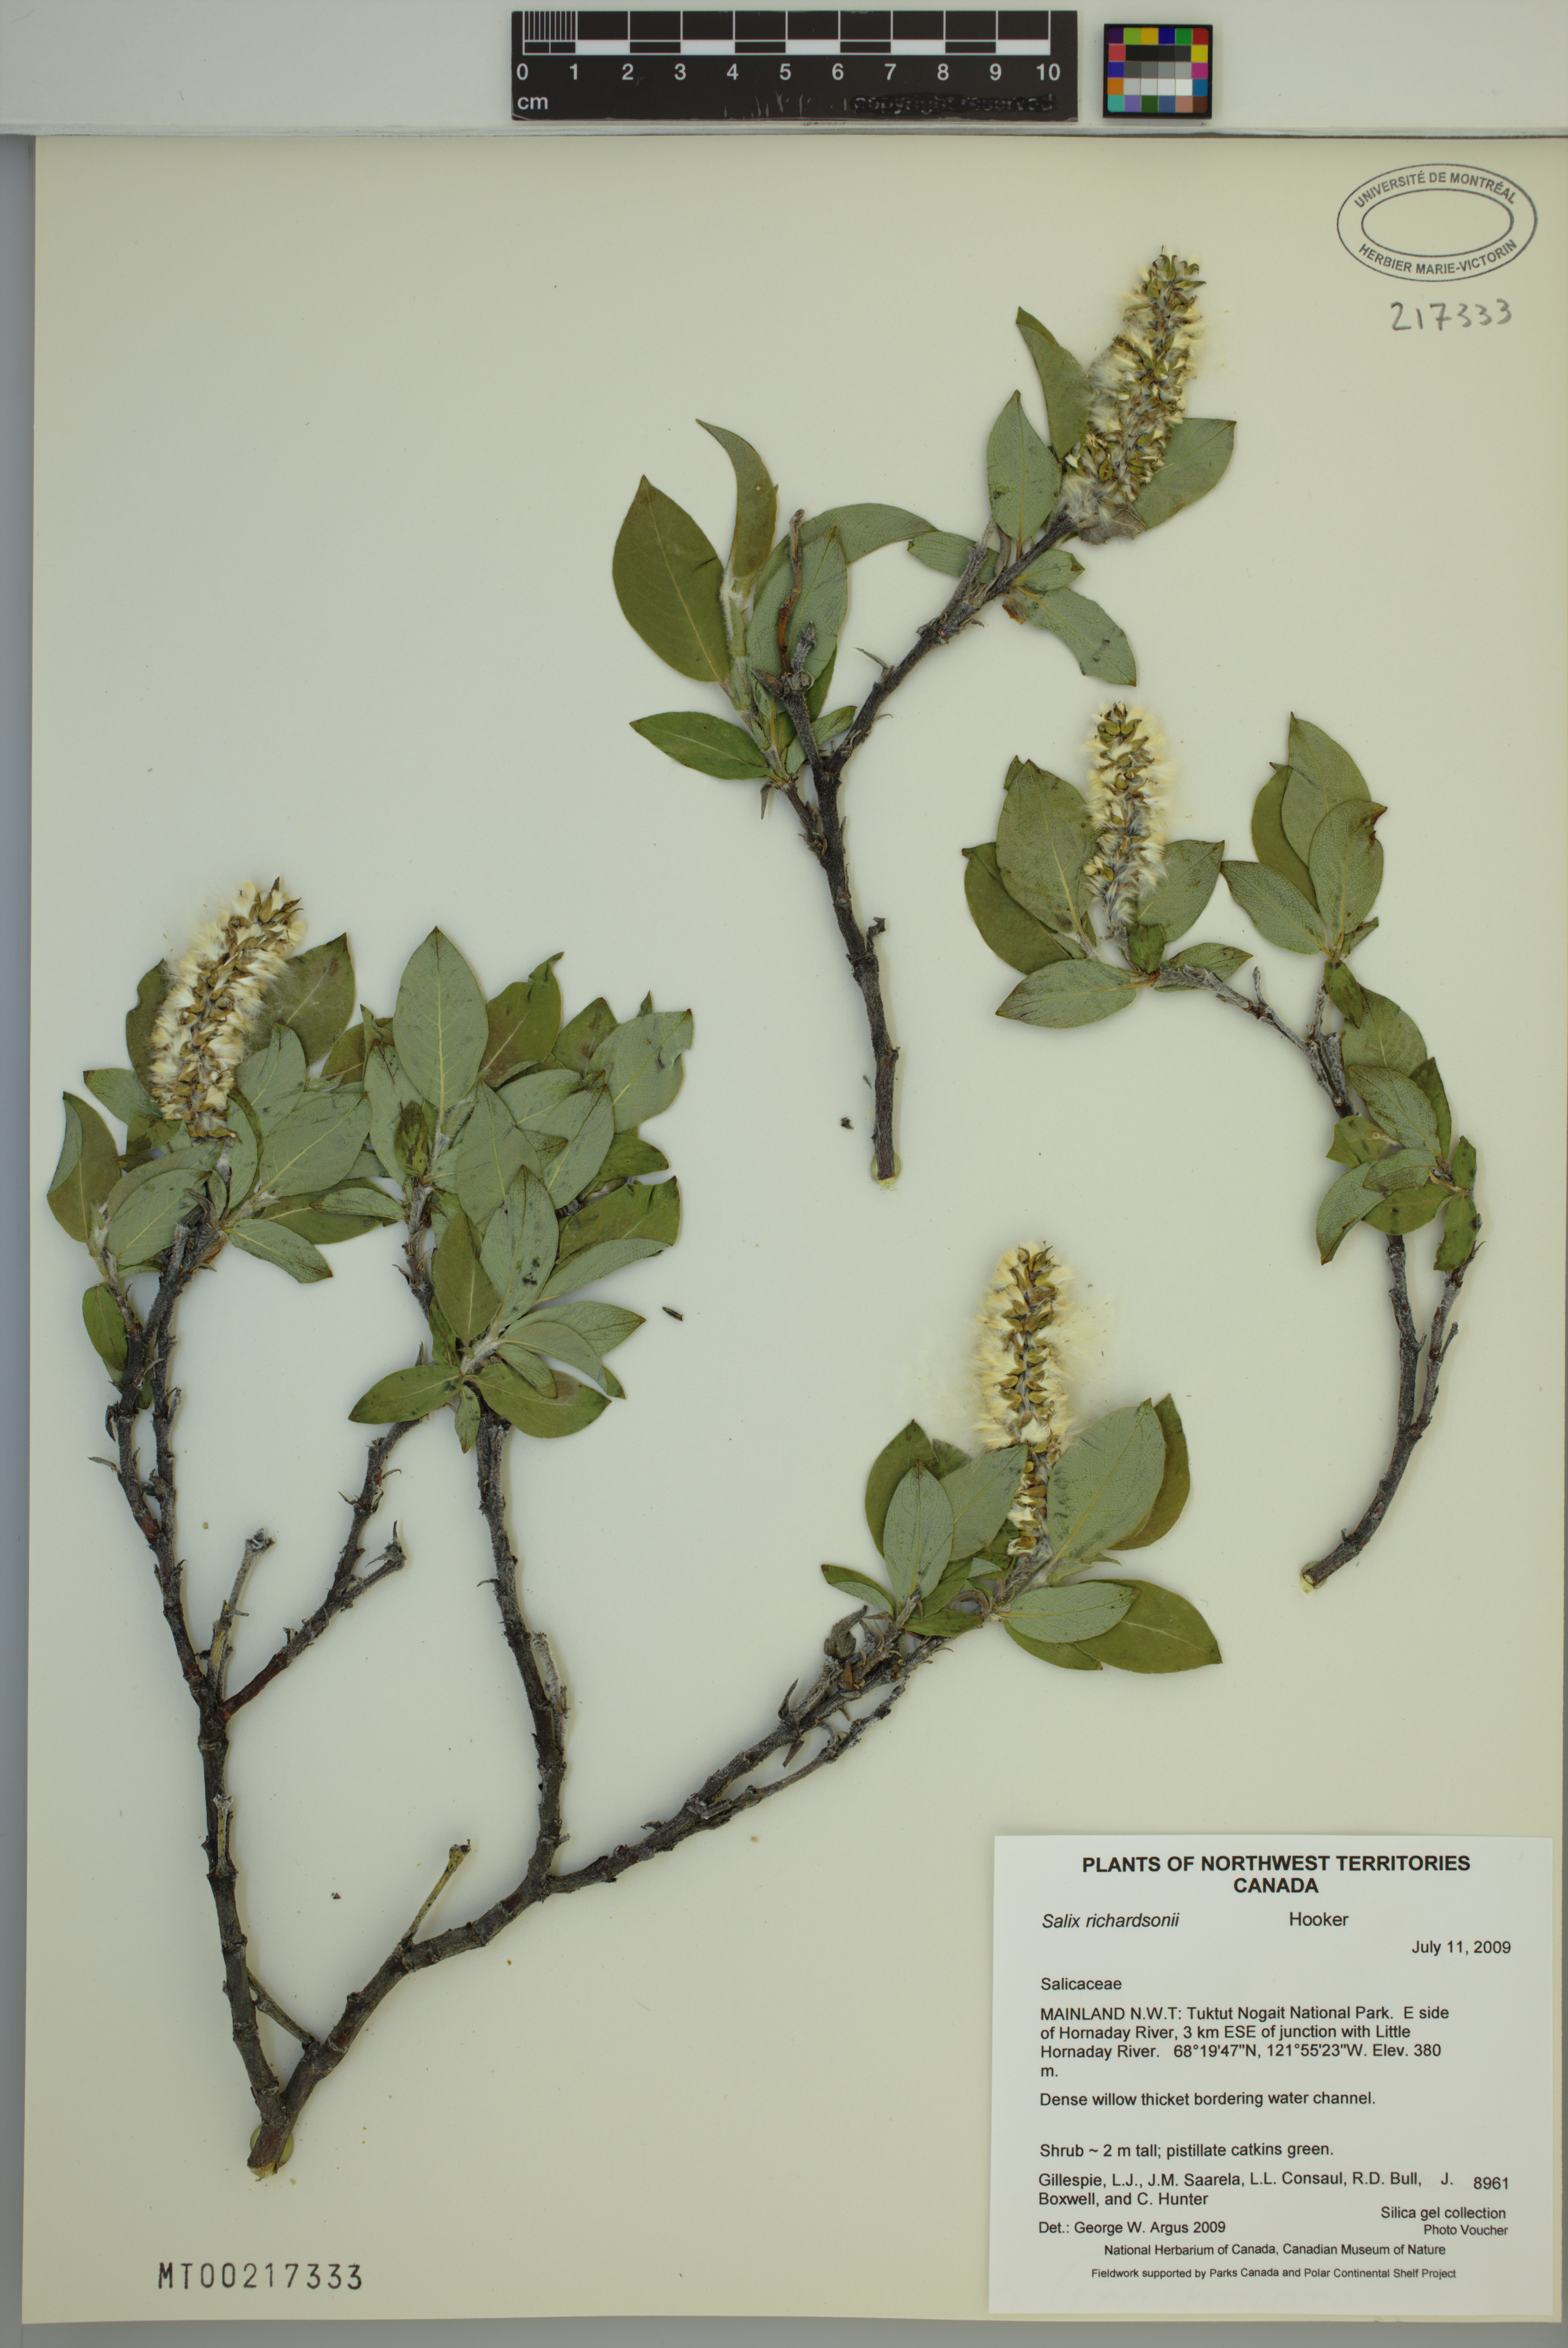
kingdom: Plantae
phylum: Tracheophyta
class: Magnoliopsida
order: Malpighiales
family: Salicaceae
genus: Salix
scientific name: Salix richardsonii
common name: Richardson’s willow
